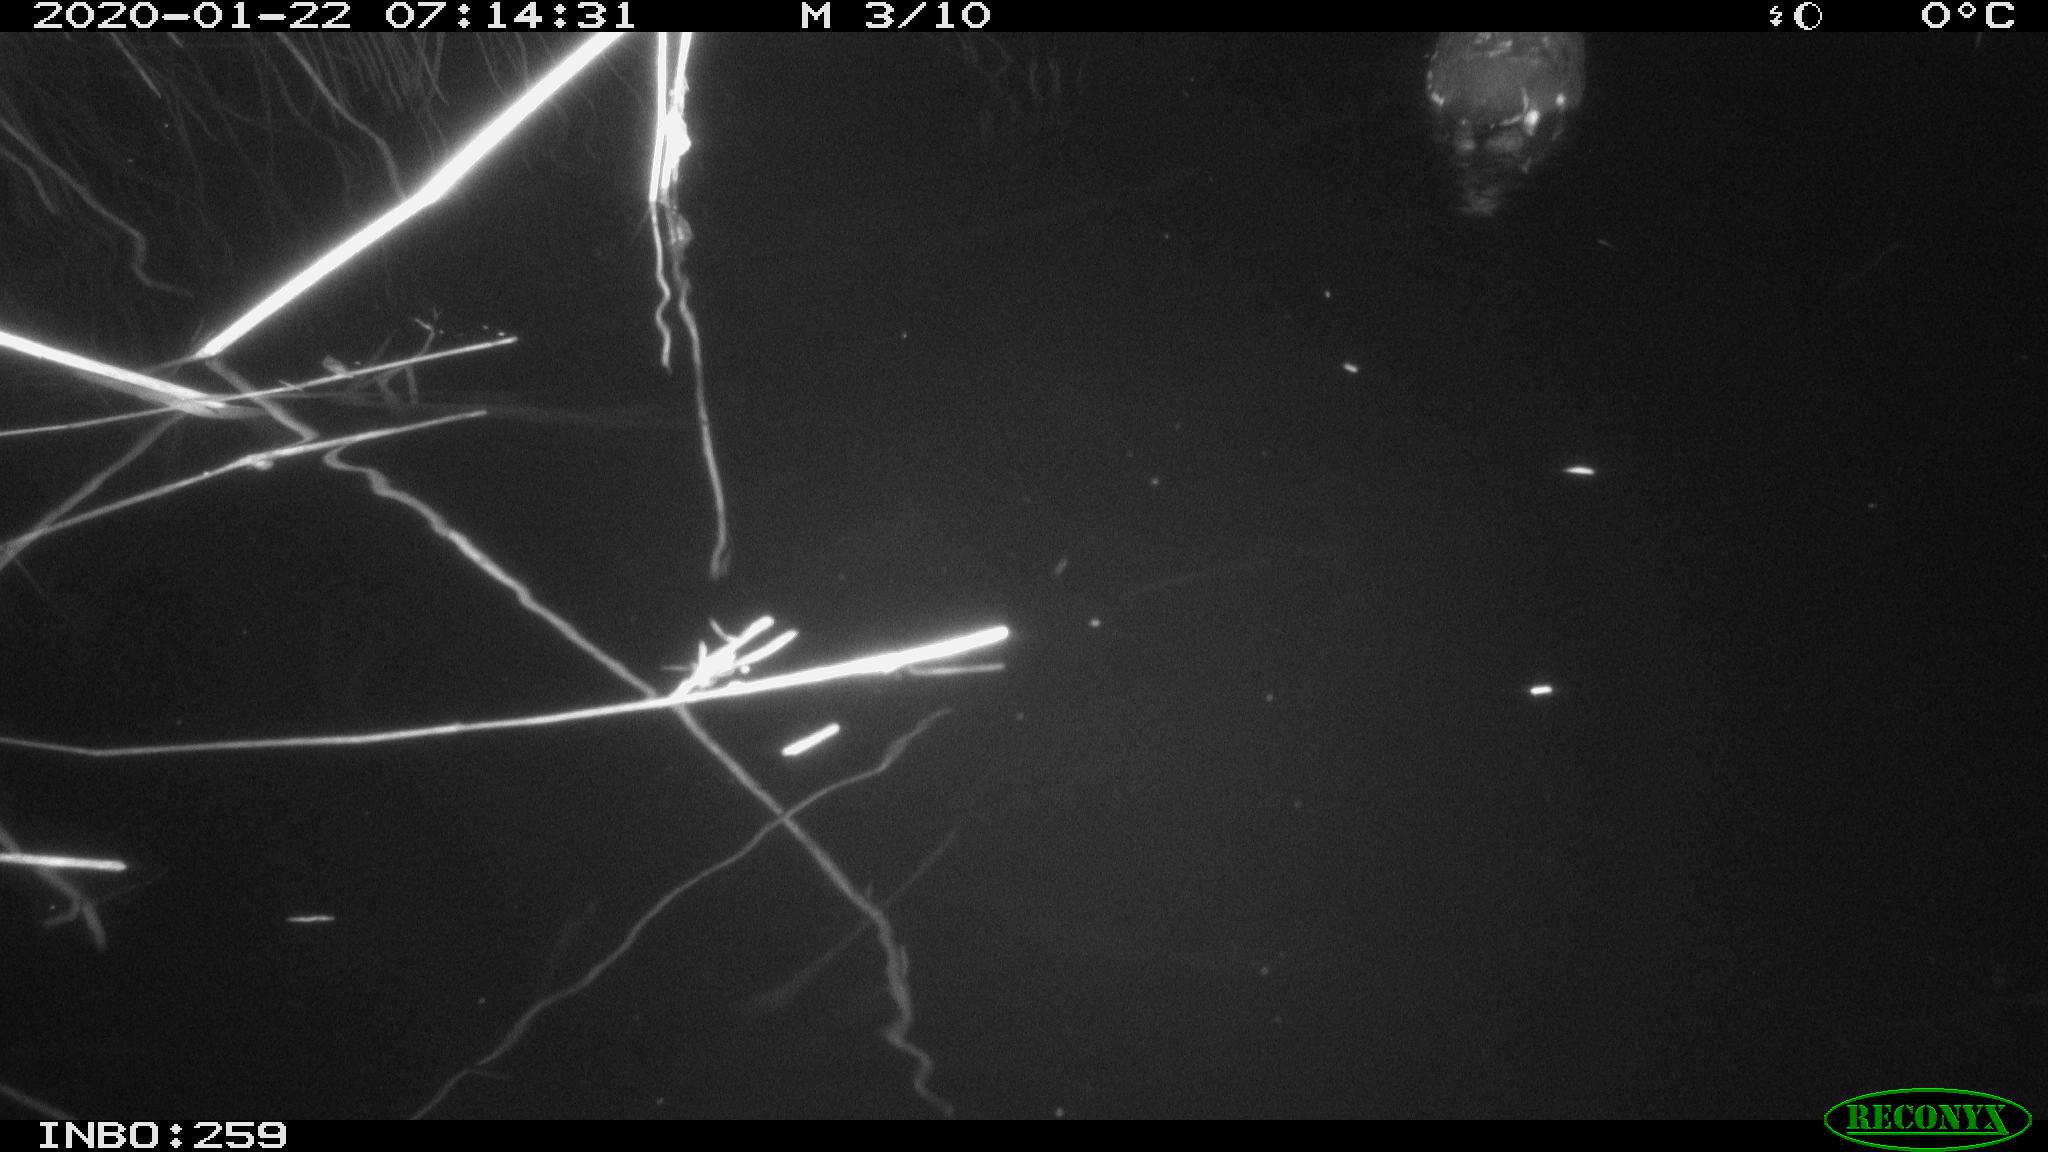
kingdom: Animalia
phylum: Chordata
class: Aves
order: Gruiformes
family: Rallidae
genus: Gallinula
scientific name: Gallinula chloropus
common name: Common moorhen
